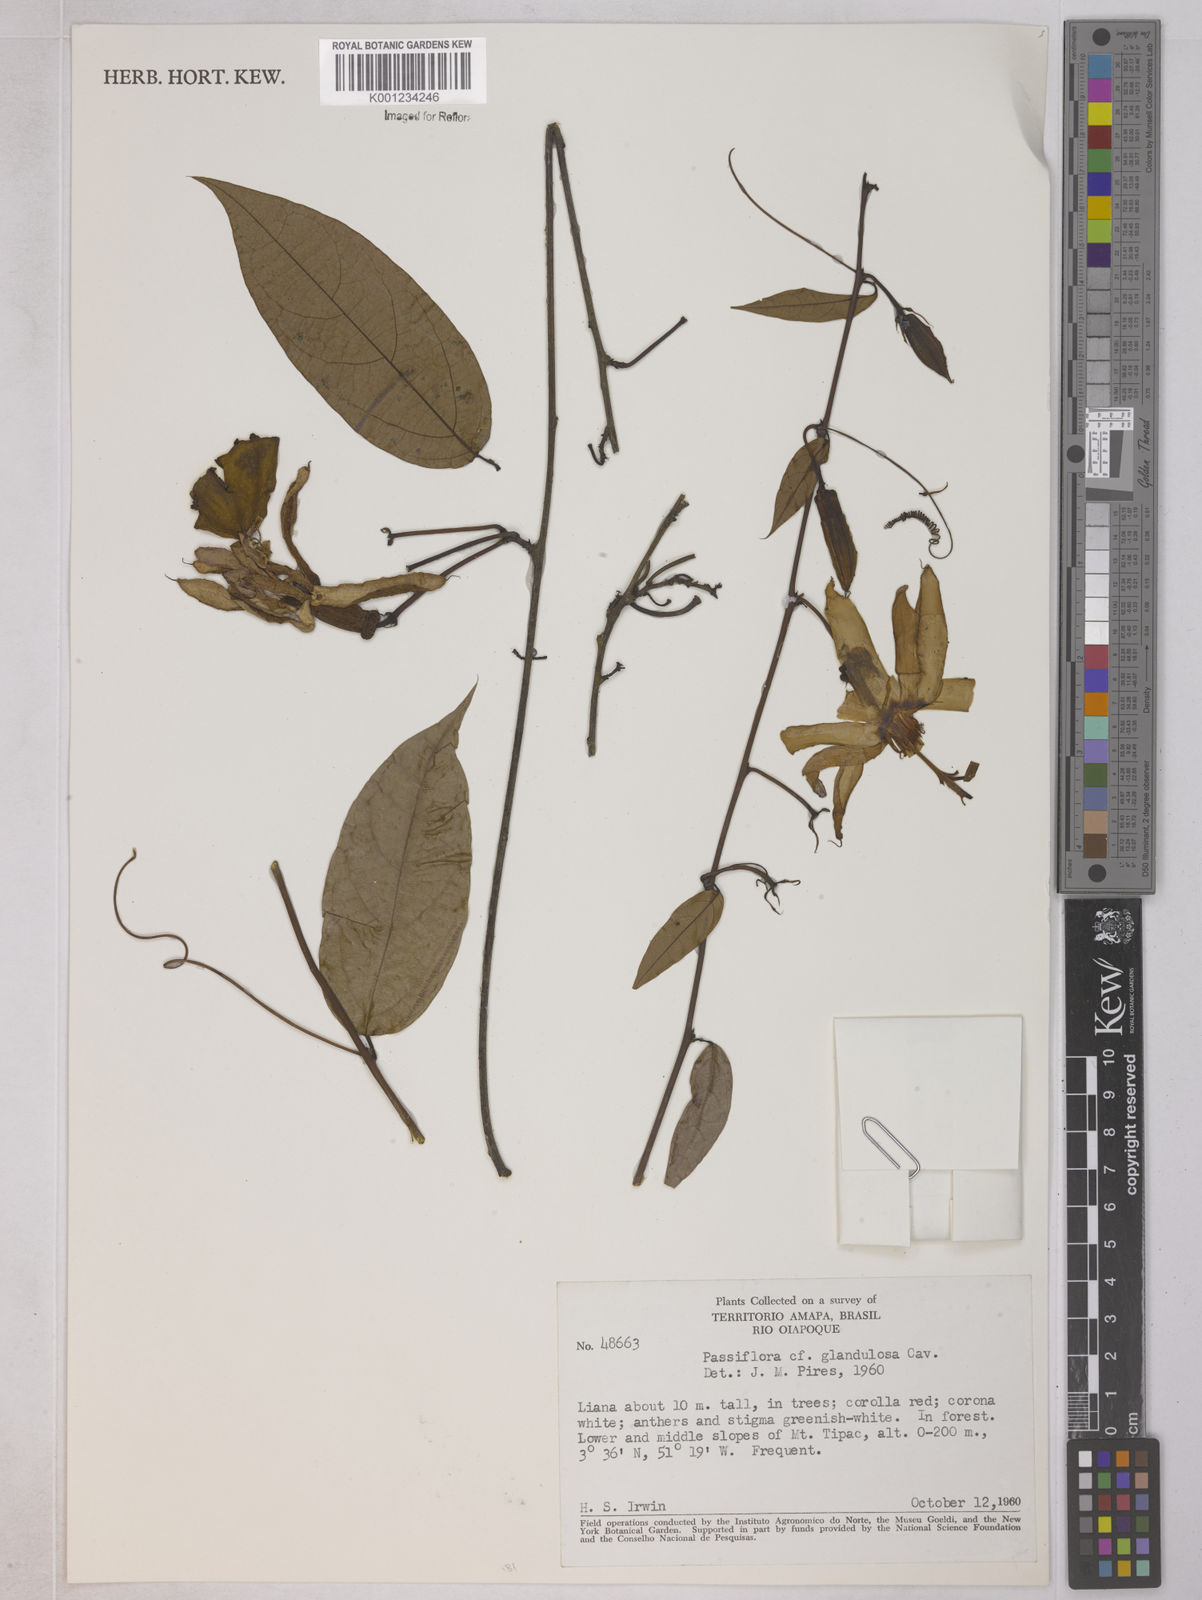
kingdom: Plantae
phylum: Tracheophyta
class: Magnoliopsida
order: Malpighiales
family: Passifloraceae
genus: Passiflora
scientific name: Passiflora glandulosa
